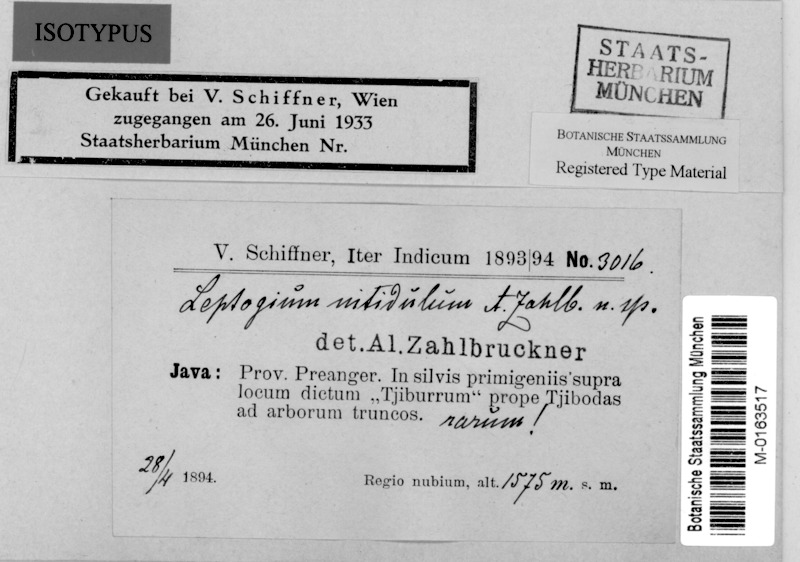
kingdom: Fungi
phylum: Ascomycota
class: Lecanoromycetes
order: Peltigerales
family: Collemataceae
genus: Leptogium
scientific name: Leptogium
